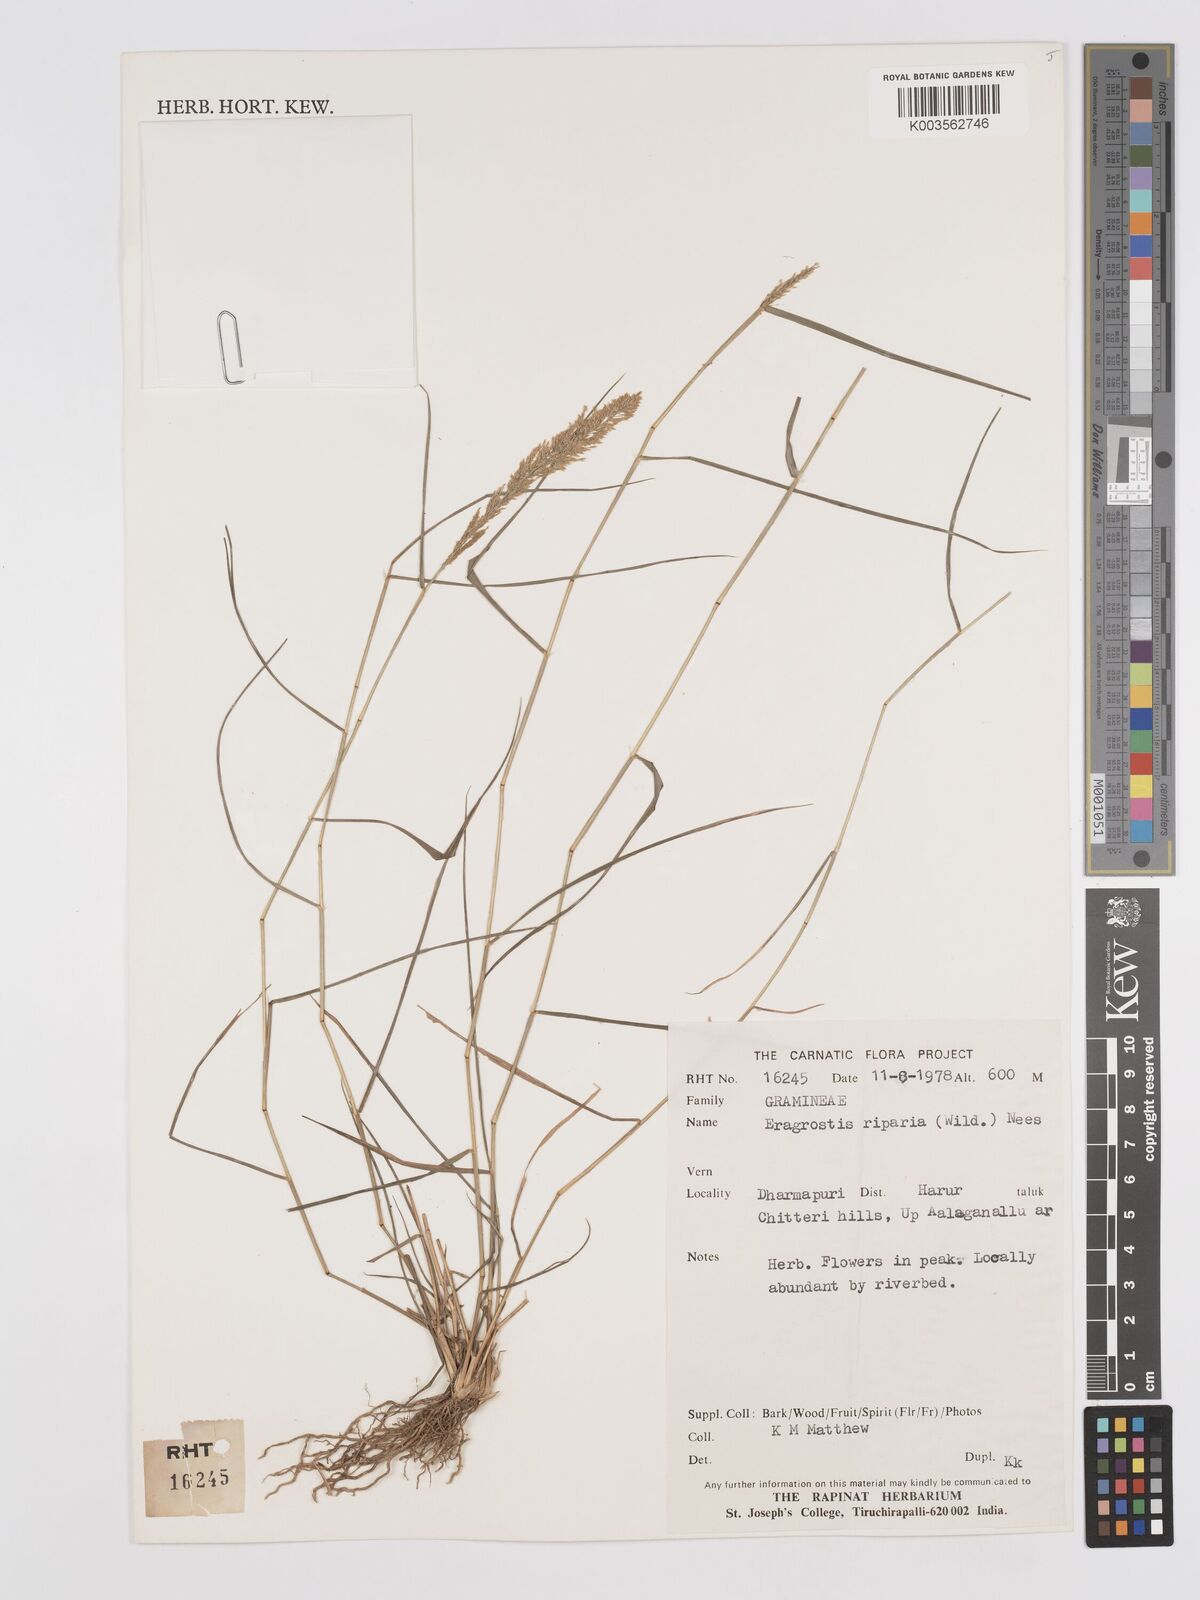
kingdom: Plantae
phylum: Tracheophyta
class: Liliopsida
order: Poales
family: Poaceae
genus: Eragrostis
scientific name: Eragrostis riparia
